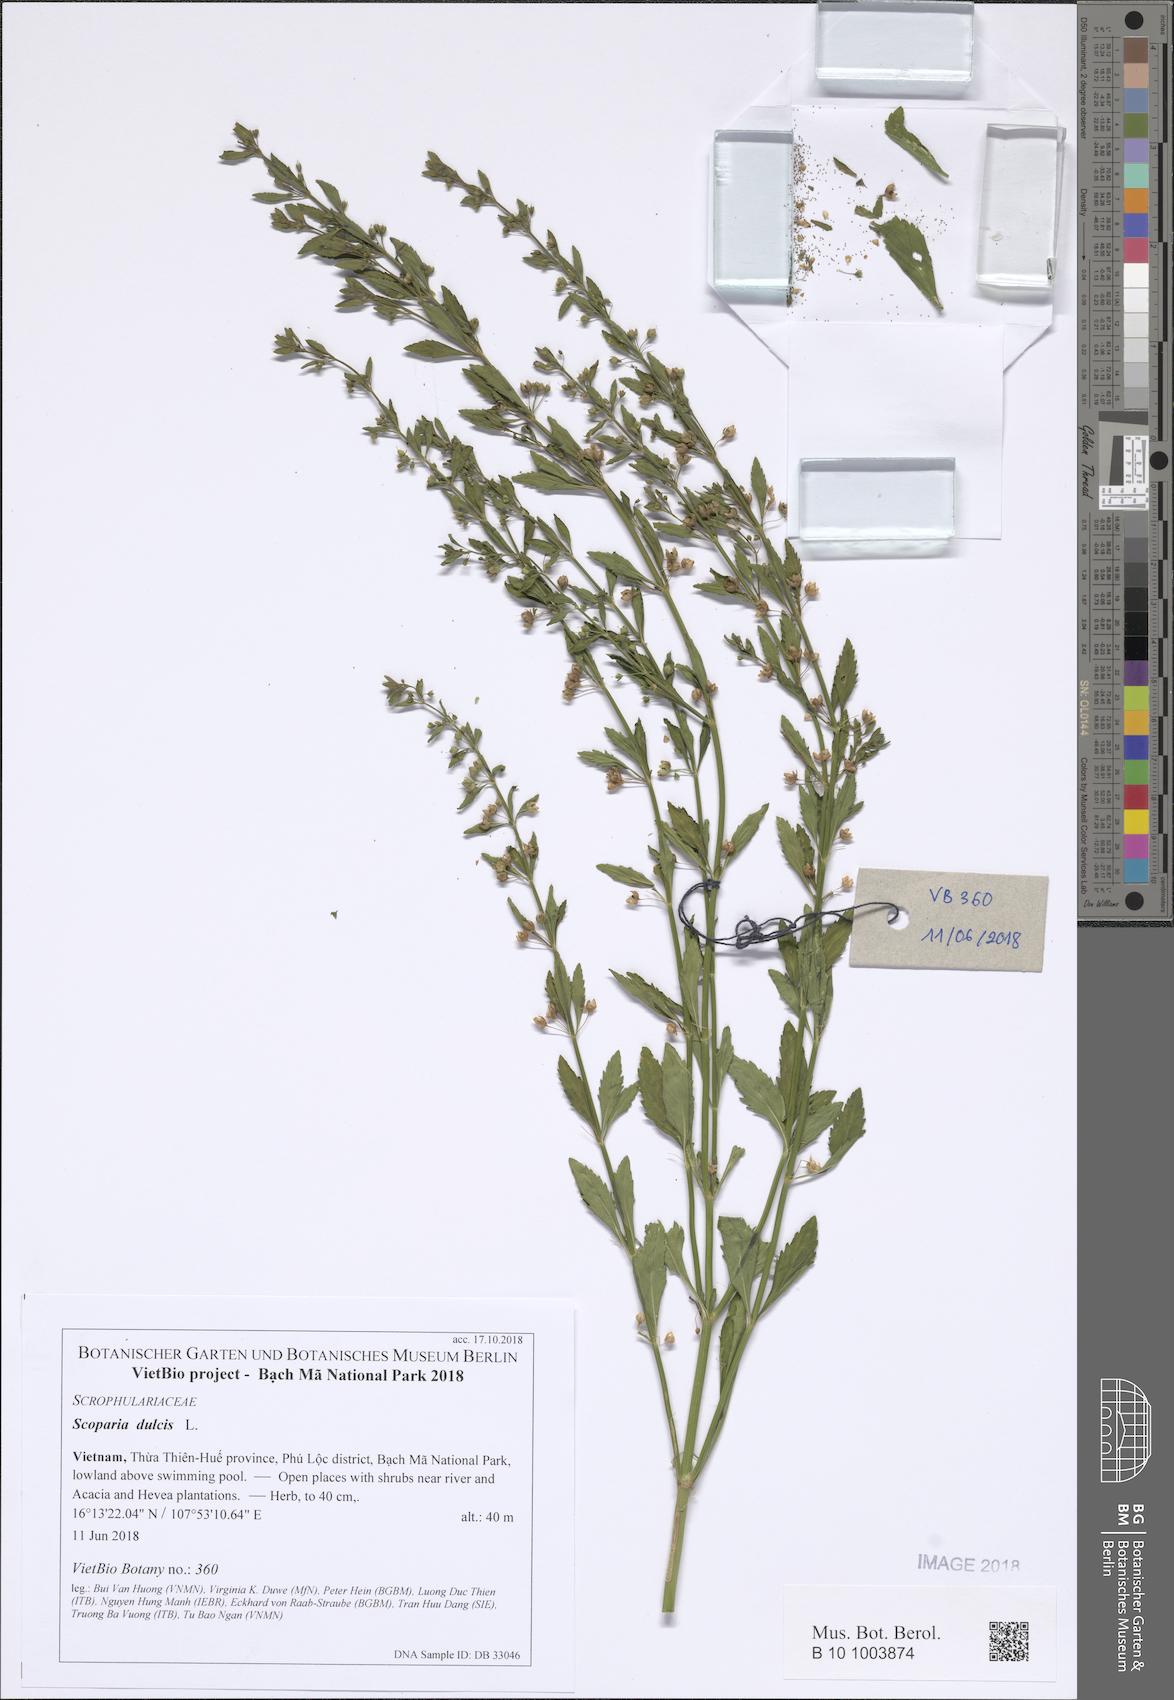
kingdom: Plantae
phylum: Tracheophyta
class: Magnoliopsida
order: Lamiales
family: Plantaginaceae
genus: Scoparia
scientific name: Scoparia dulcis
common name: Scoparia-weed
